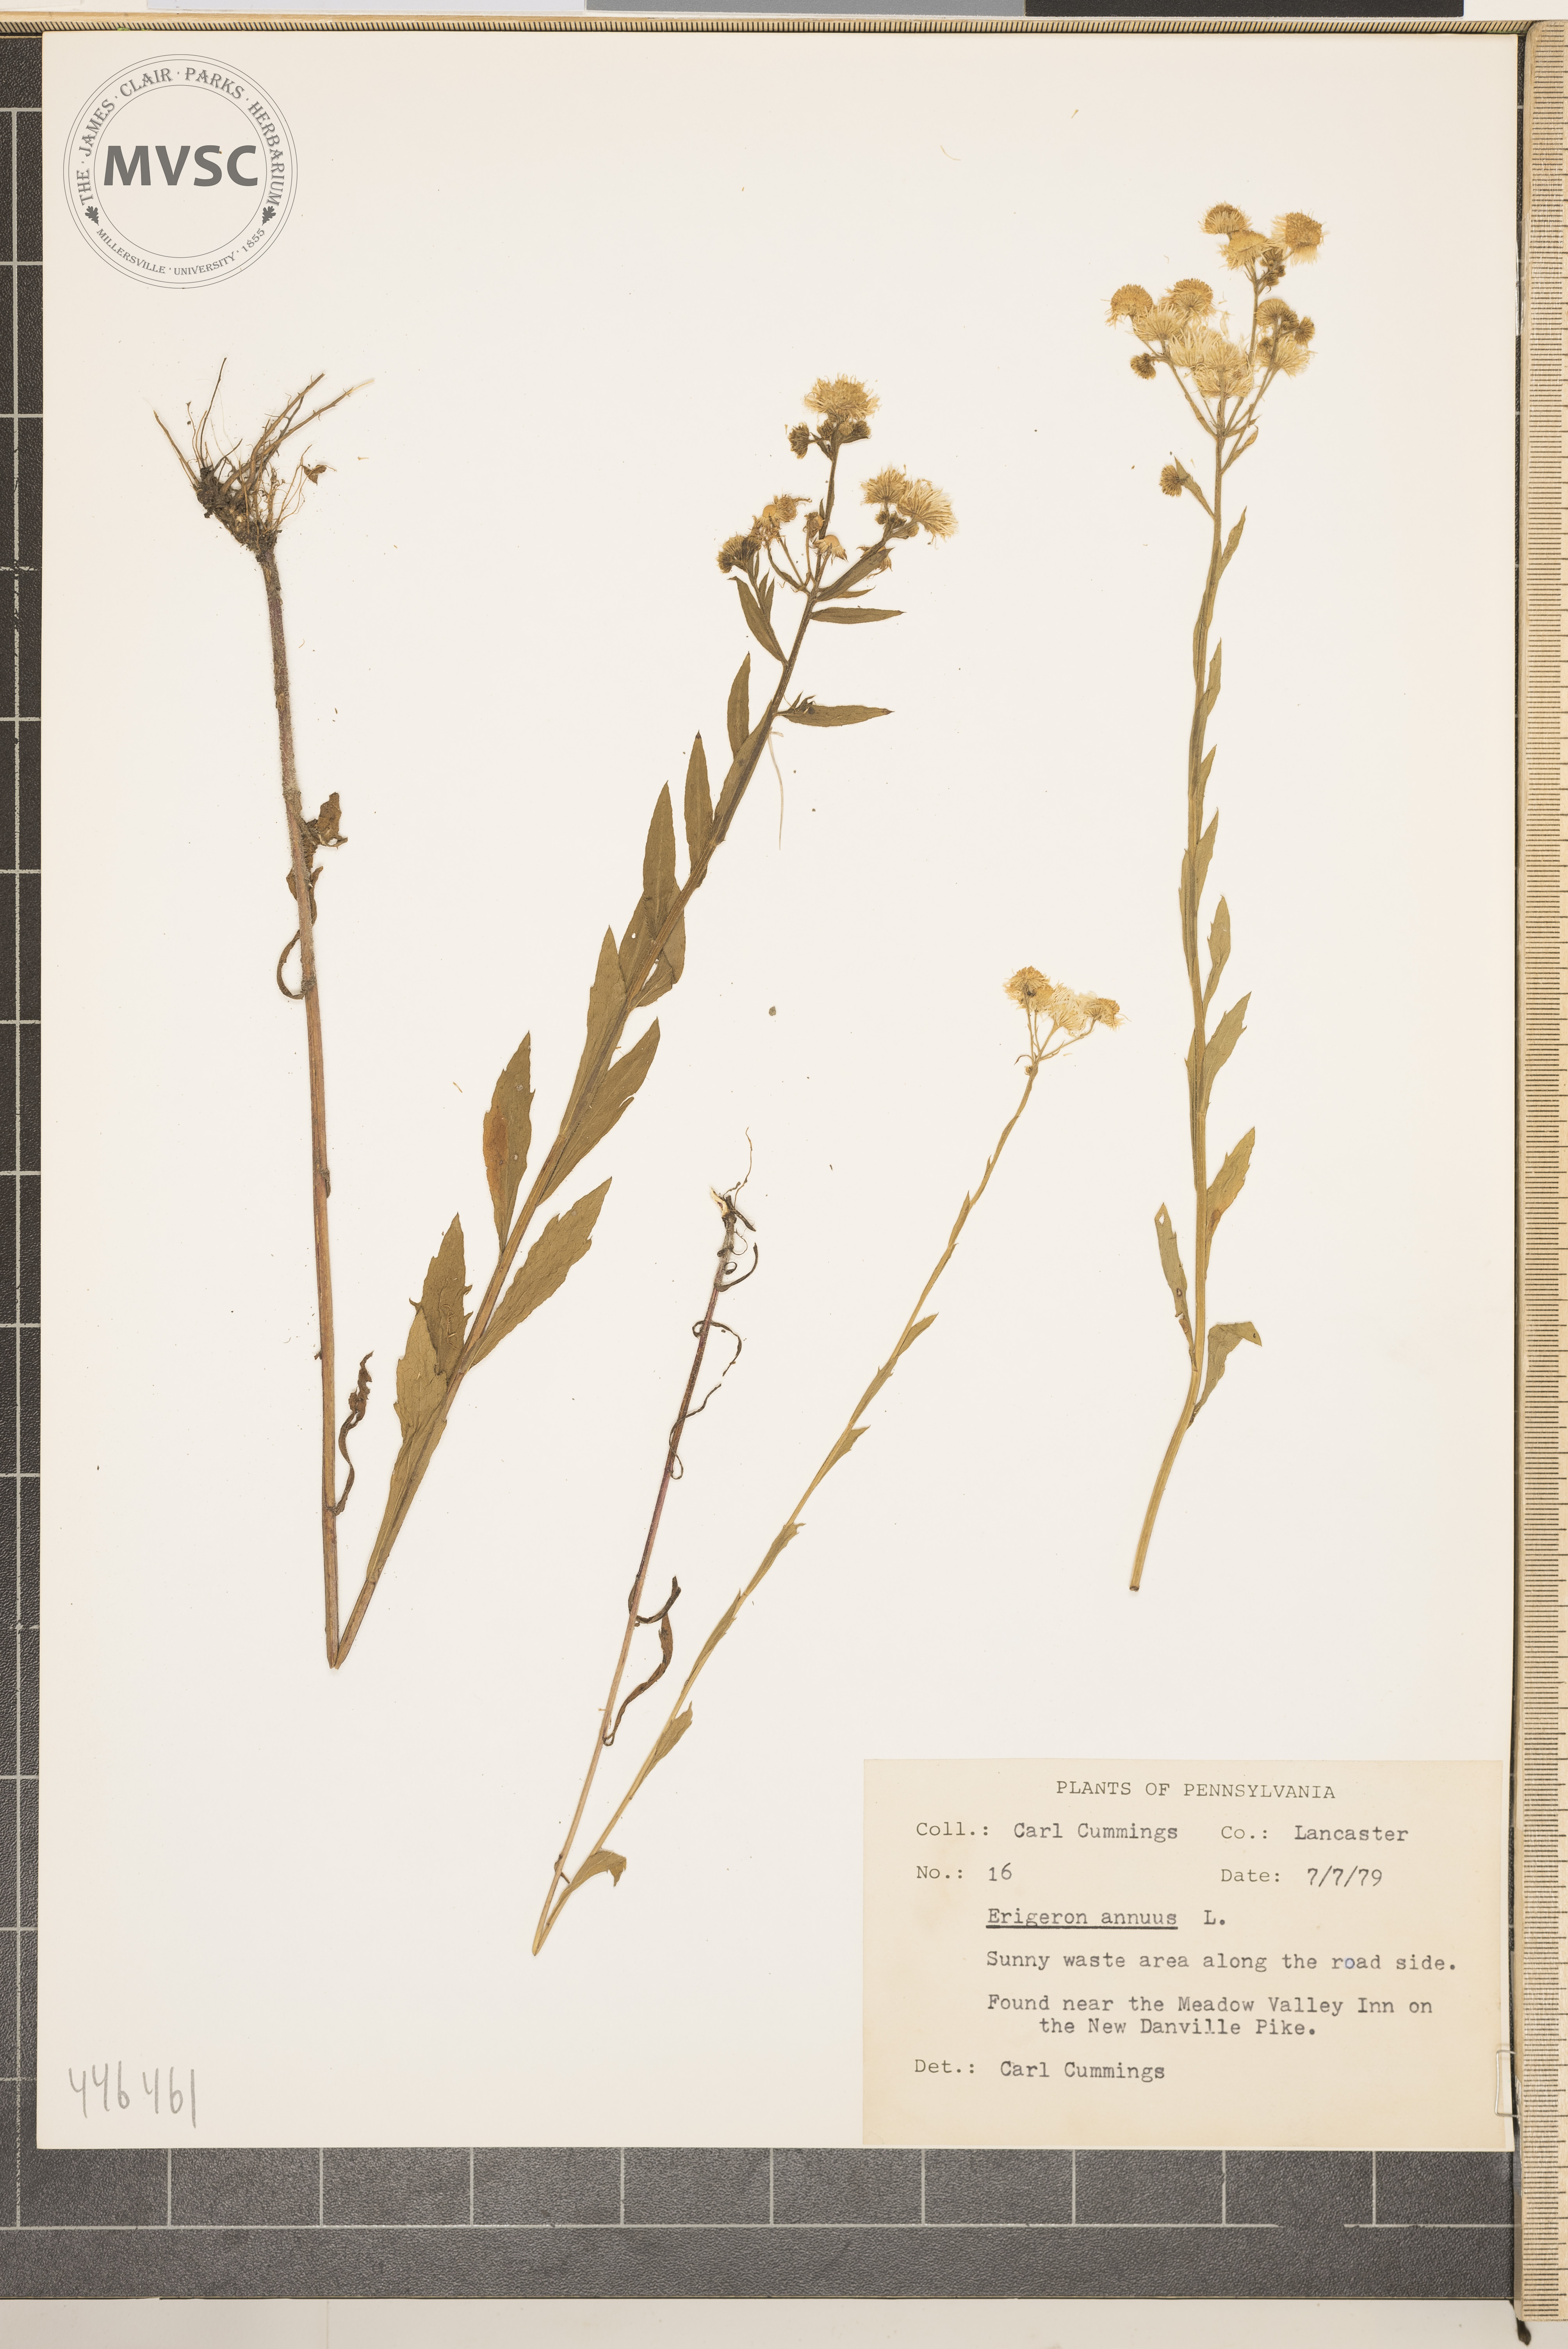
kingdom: Plantae
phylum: Tracheophyta
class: Magnoliopsida
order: Asterales
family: Asteraceae
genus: Erigeron
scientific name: Erigeron annuus
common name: Tall fleabane
